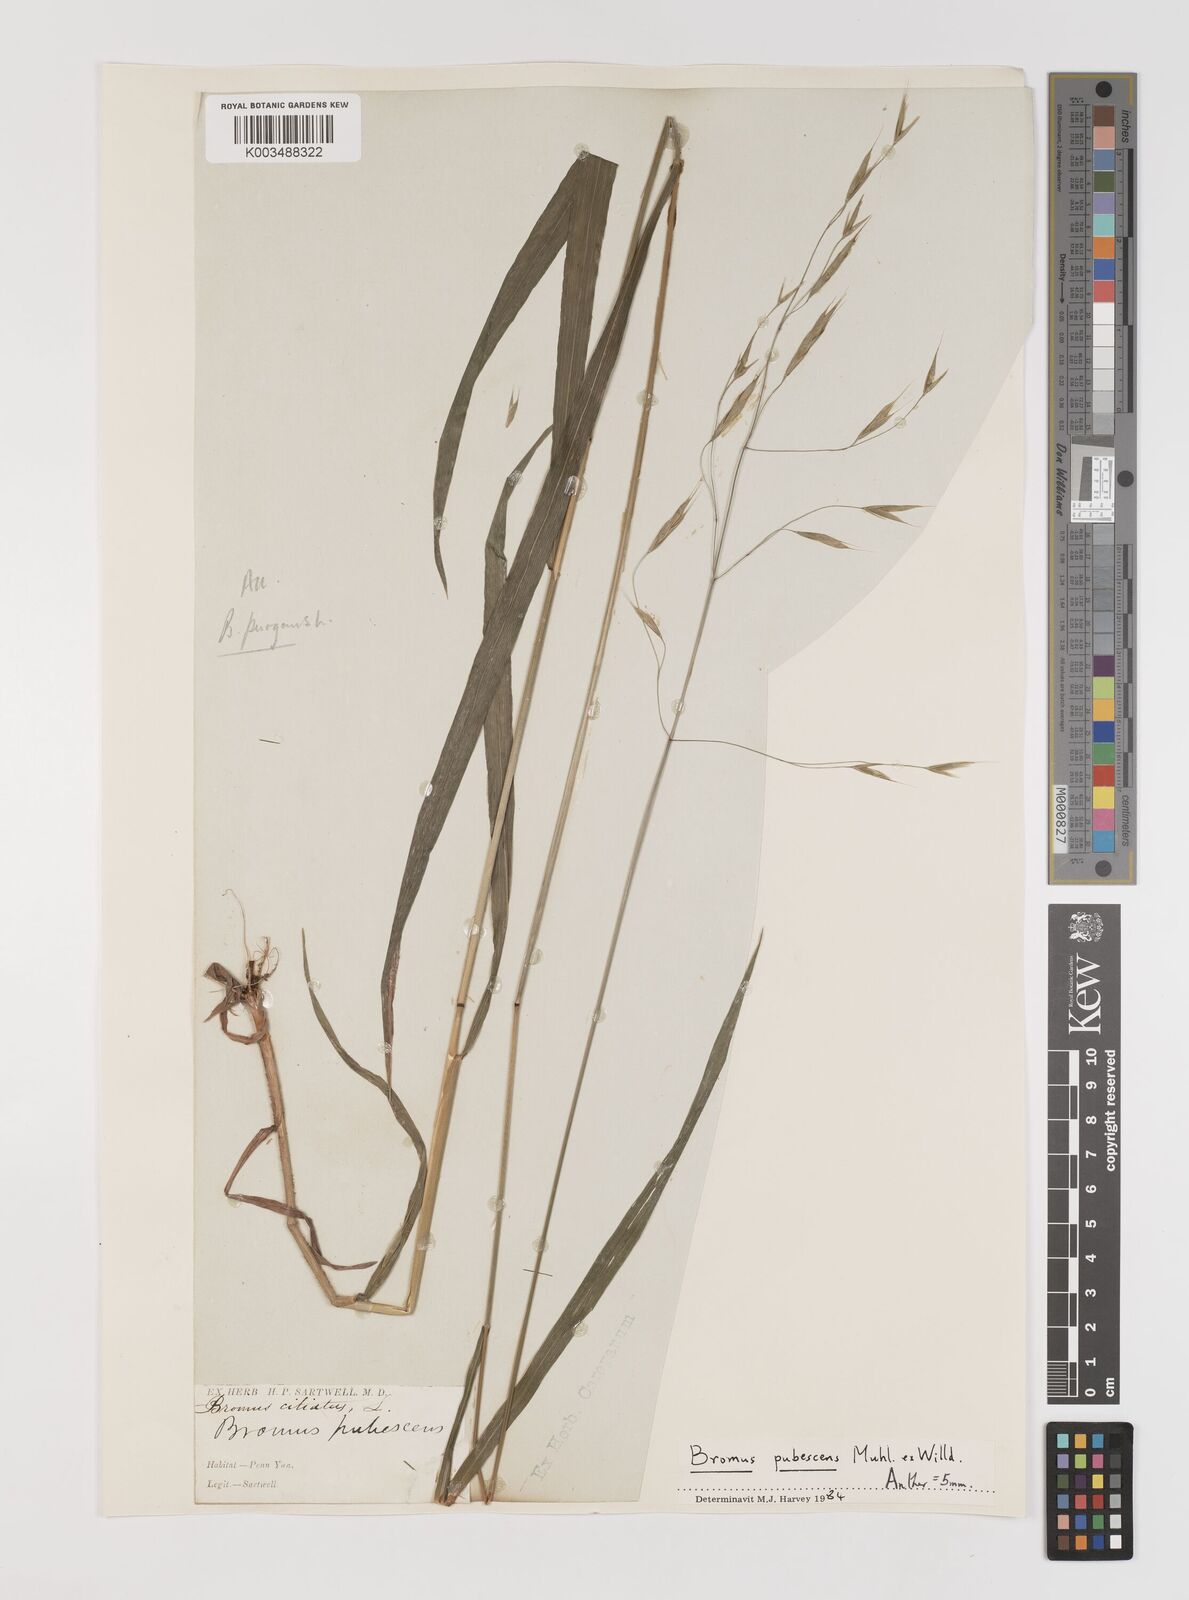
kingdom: Plantae
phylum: Tracheophyta
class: Liliopsida
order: Poales
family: Poaceae
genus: Bromus
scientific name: Bromus pubescens
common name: Hairy wood brome grass
